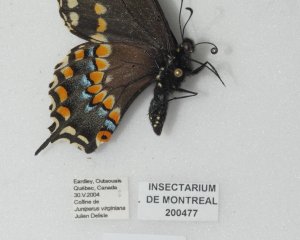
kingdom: Animalia
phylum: Arthropoda
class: Insecta
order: Lepidoptera
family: Papilionidae
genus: Papilio
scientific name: Papilio polyxenes
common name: Black Swallowtail
